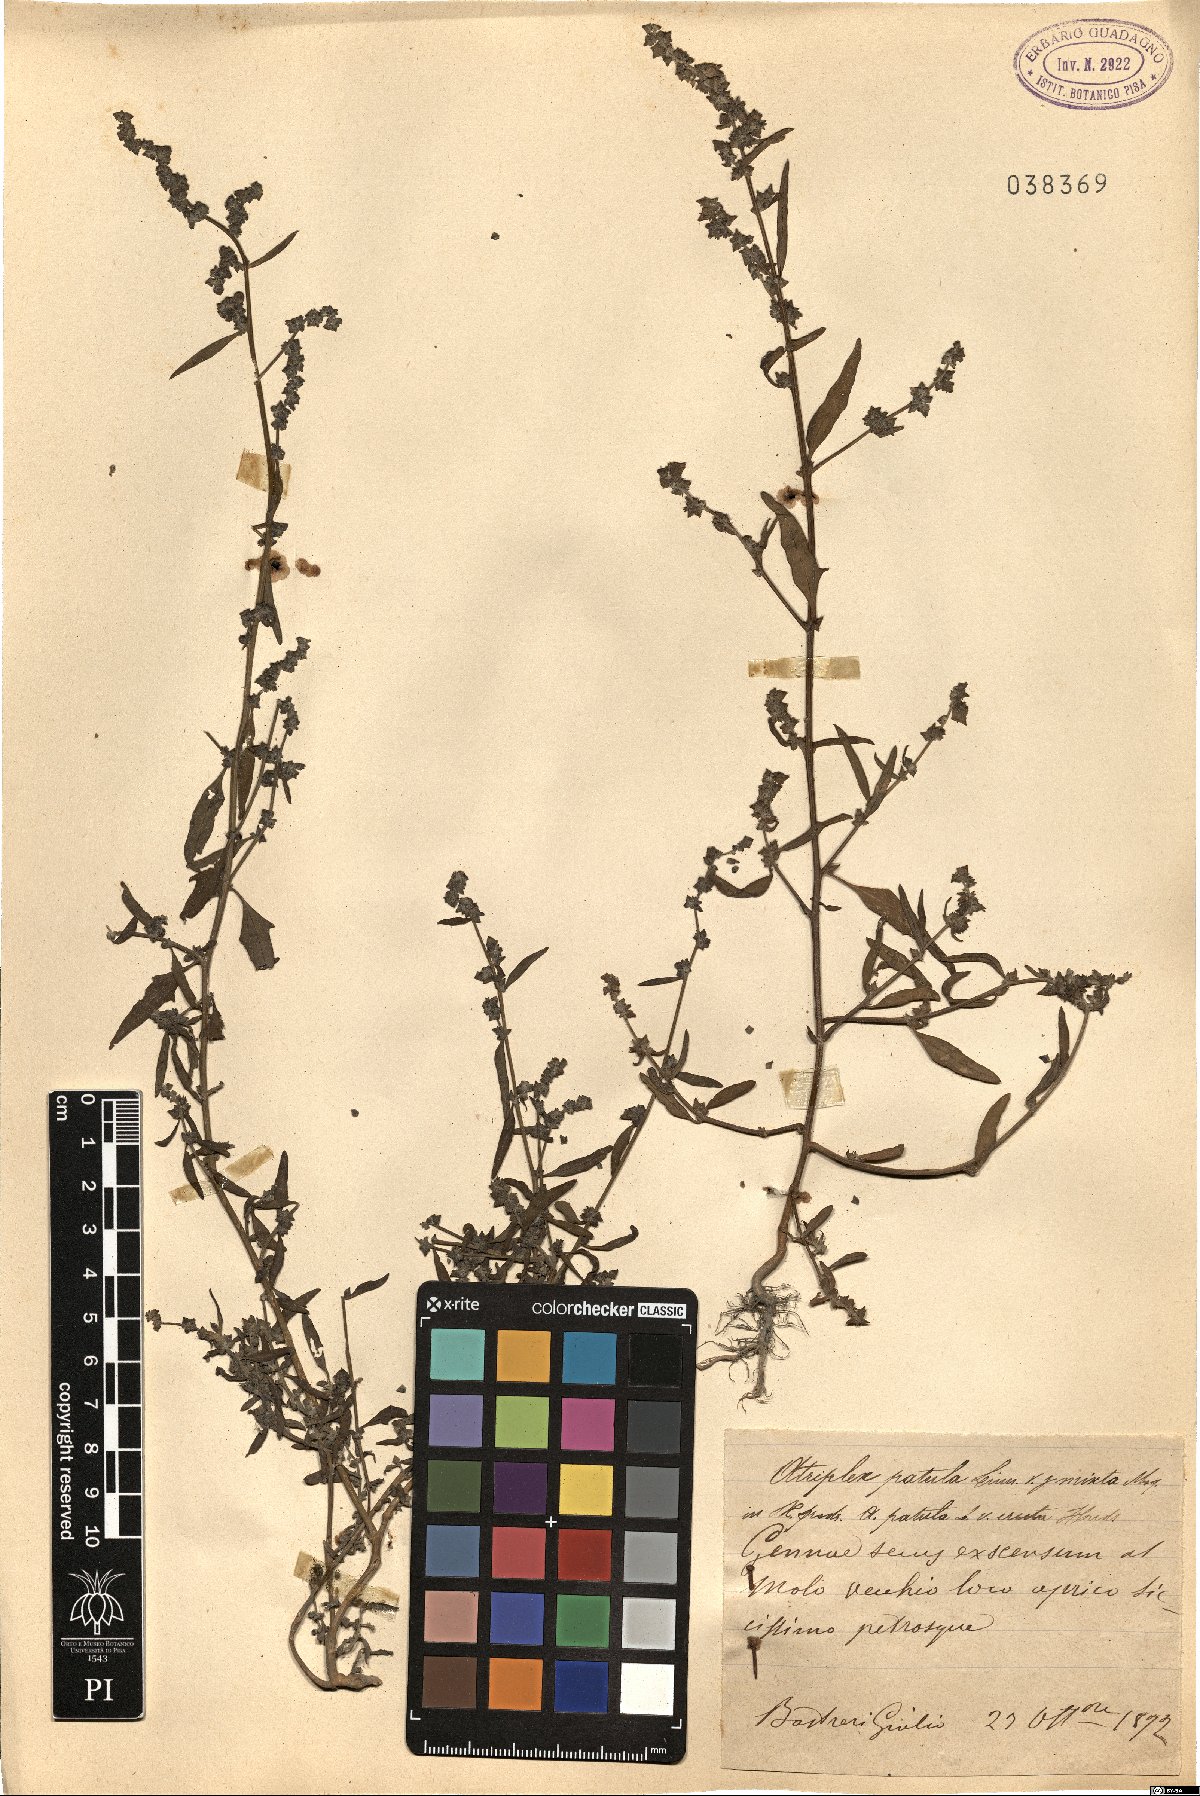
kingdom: Plantae
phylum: Tracheophyta
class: Magnoliopsida
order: Caryophyllales
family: Amaranthaceae
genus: Atriplex
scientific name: Atriplex patula
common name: Common orache
